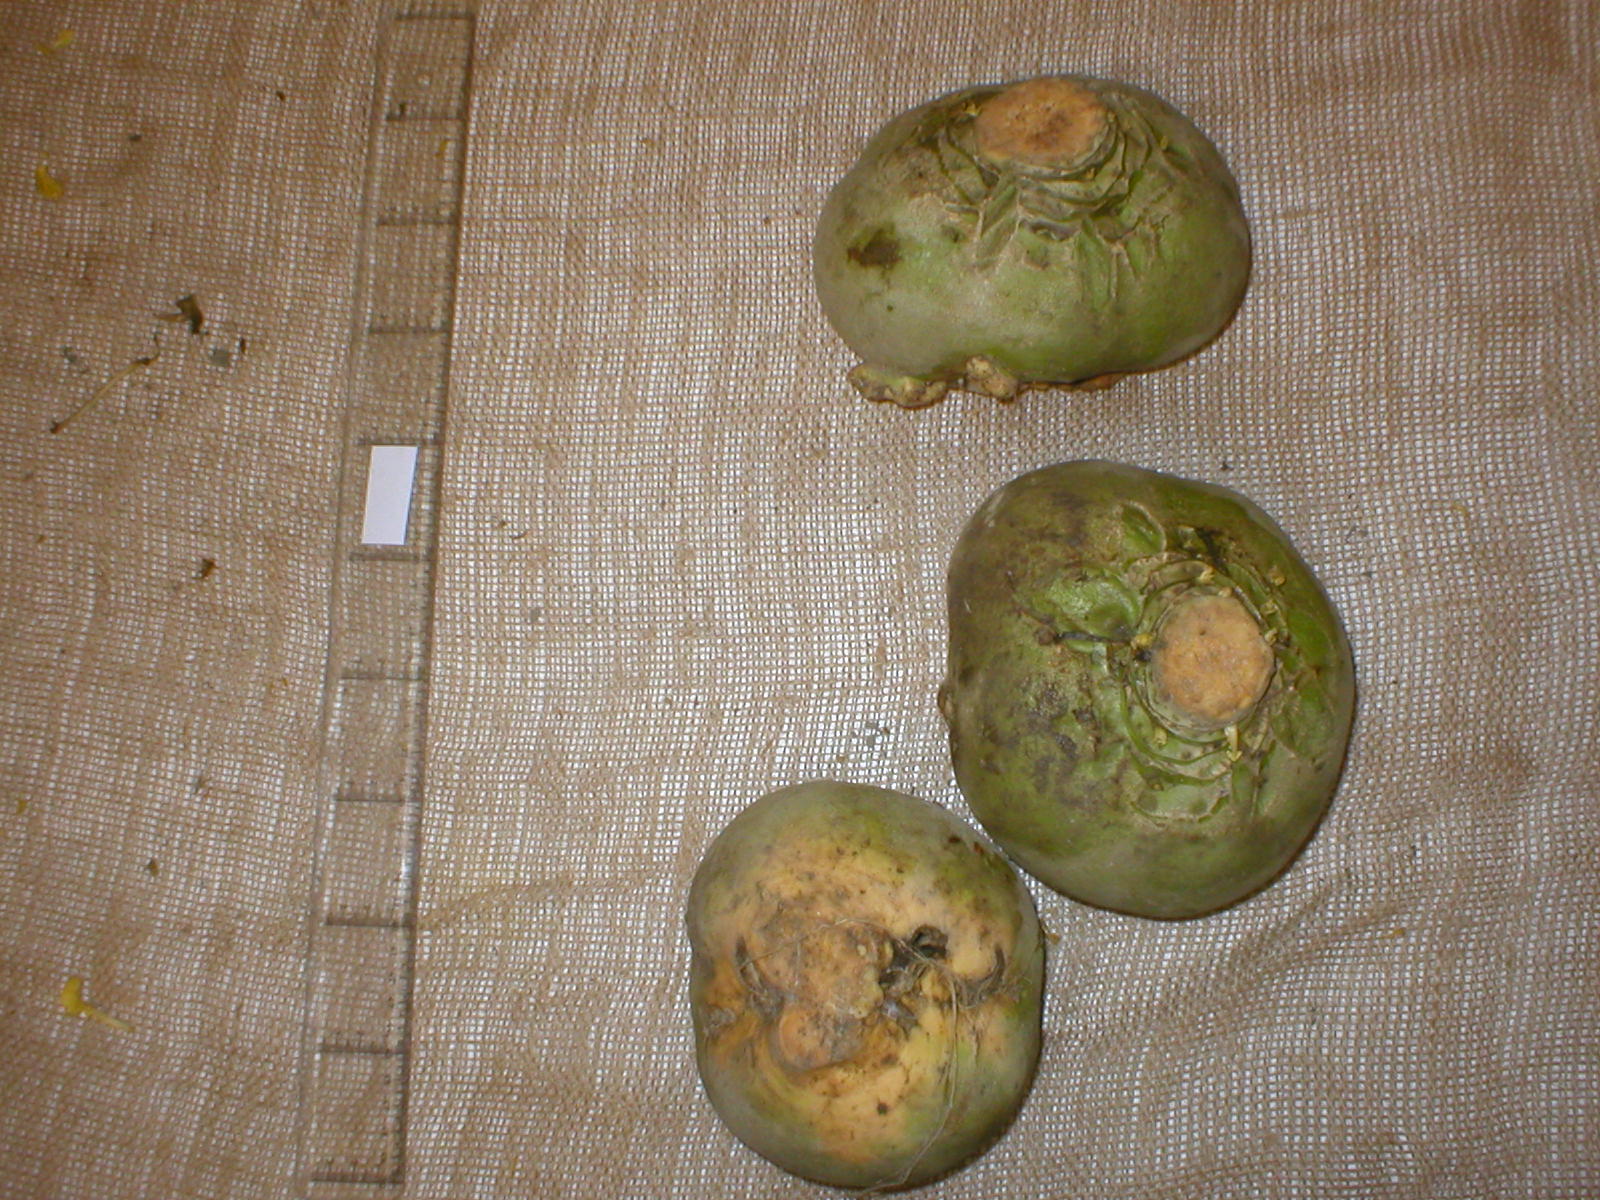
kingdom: Plantae
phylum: Tracheophyta
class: Magnoliopsida
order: Brassicales
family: Brassicaceae
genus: Brassica
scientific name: Brassica napus
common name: Rape
